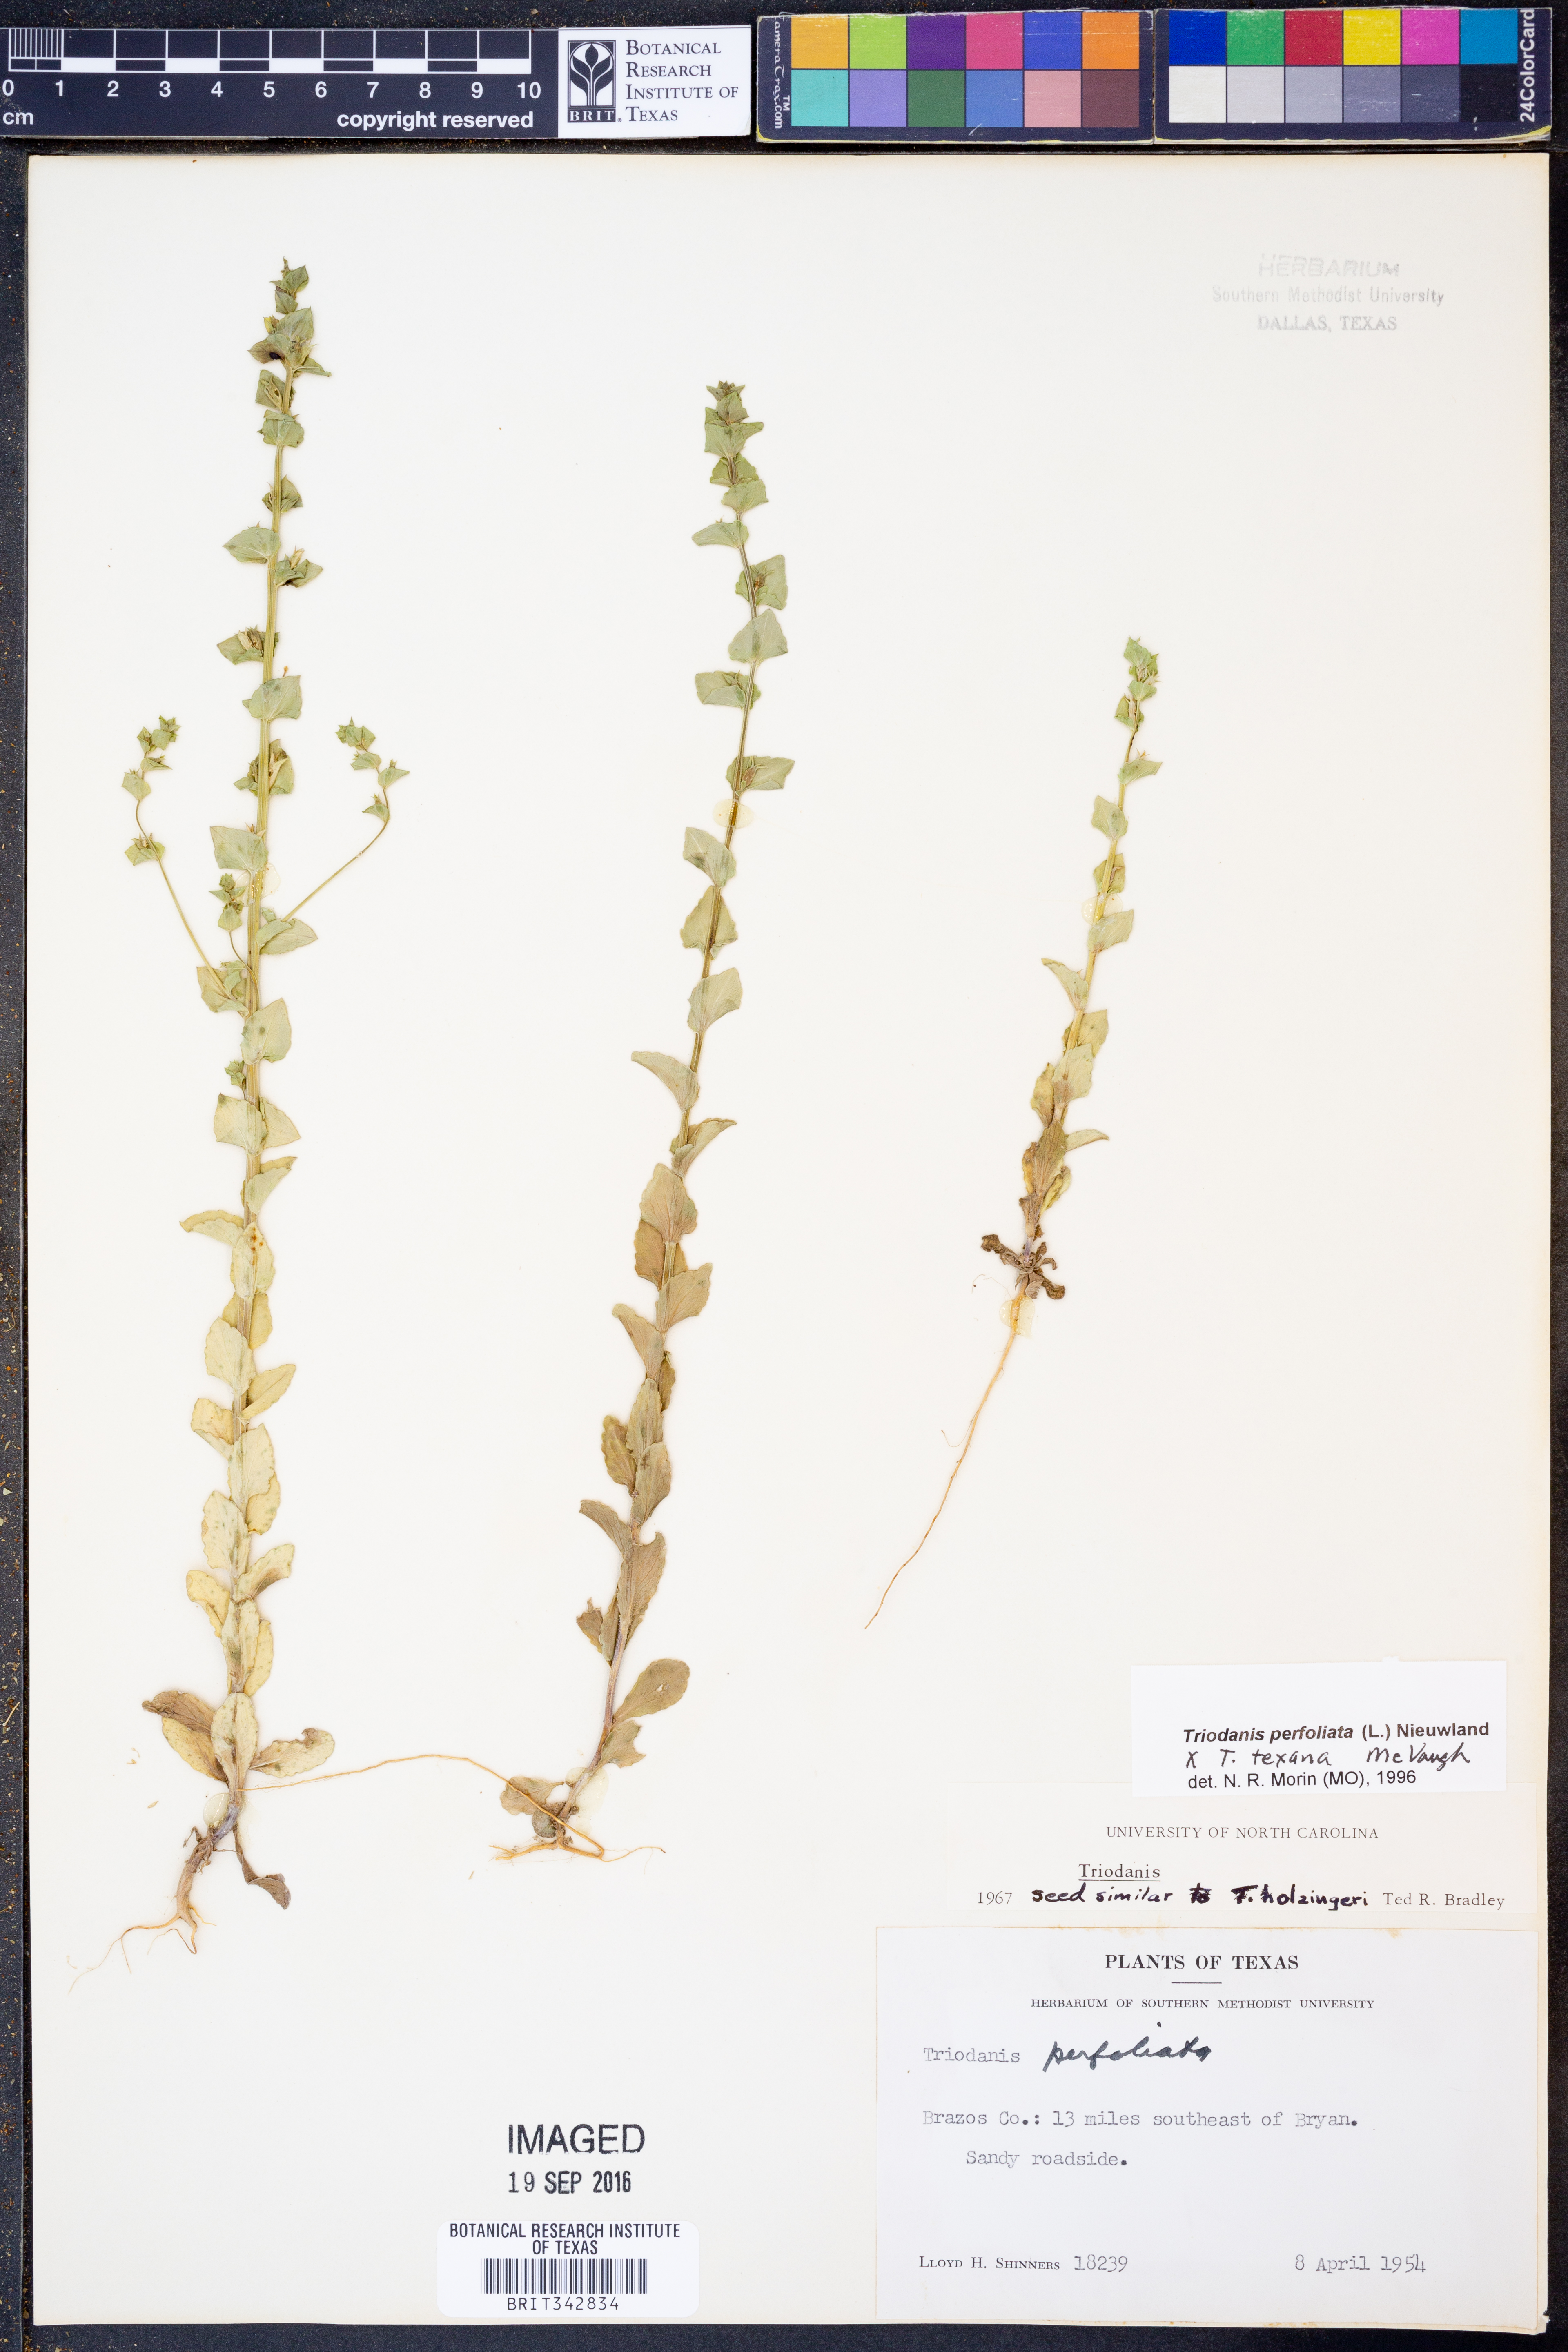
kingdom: Plantae
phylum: Tracheophyta
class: Magnoliopsida
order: Asterales
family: Campanulaceae
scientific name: Campanulaceae
